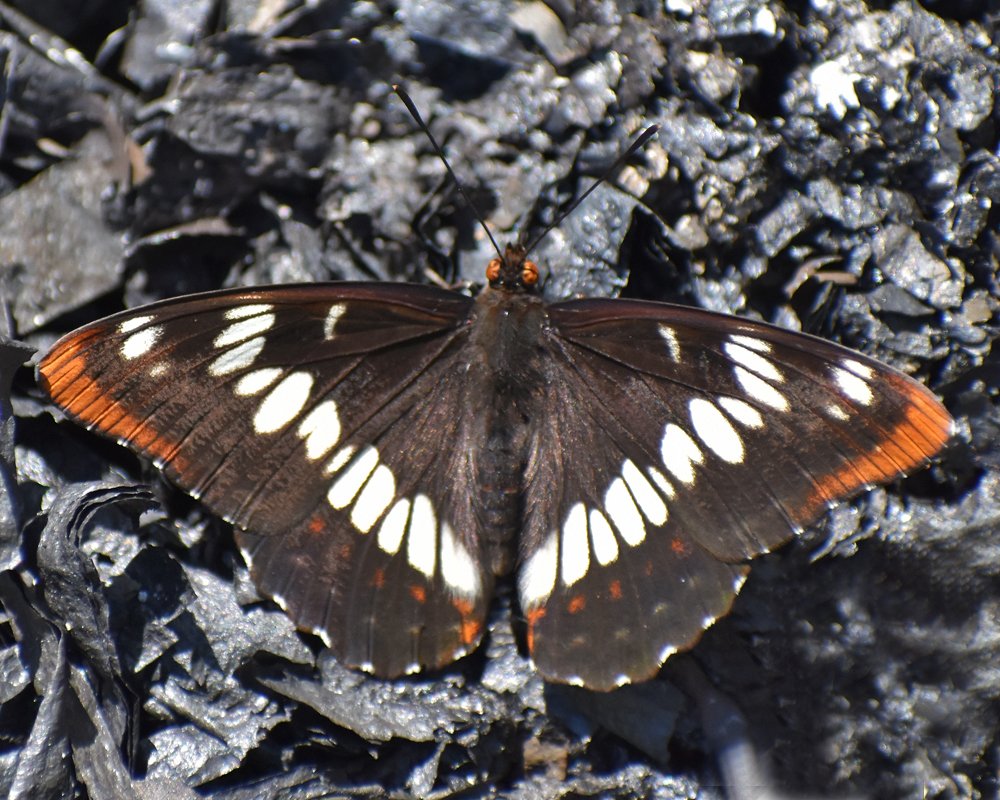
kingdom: Animalia
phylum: Arthropoda
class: Insecta
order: Lepidoptera
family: Nymphalidae
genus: Limenitis
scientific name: Limenitis lorquini
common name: Lorquin's Admiral
